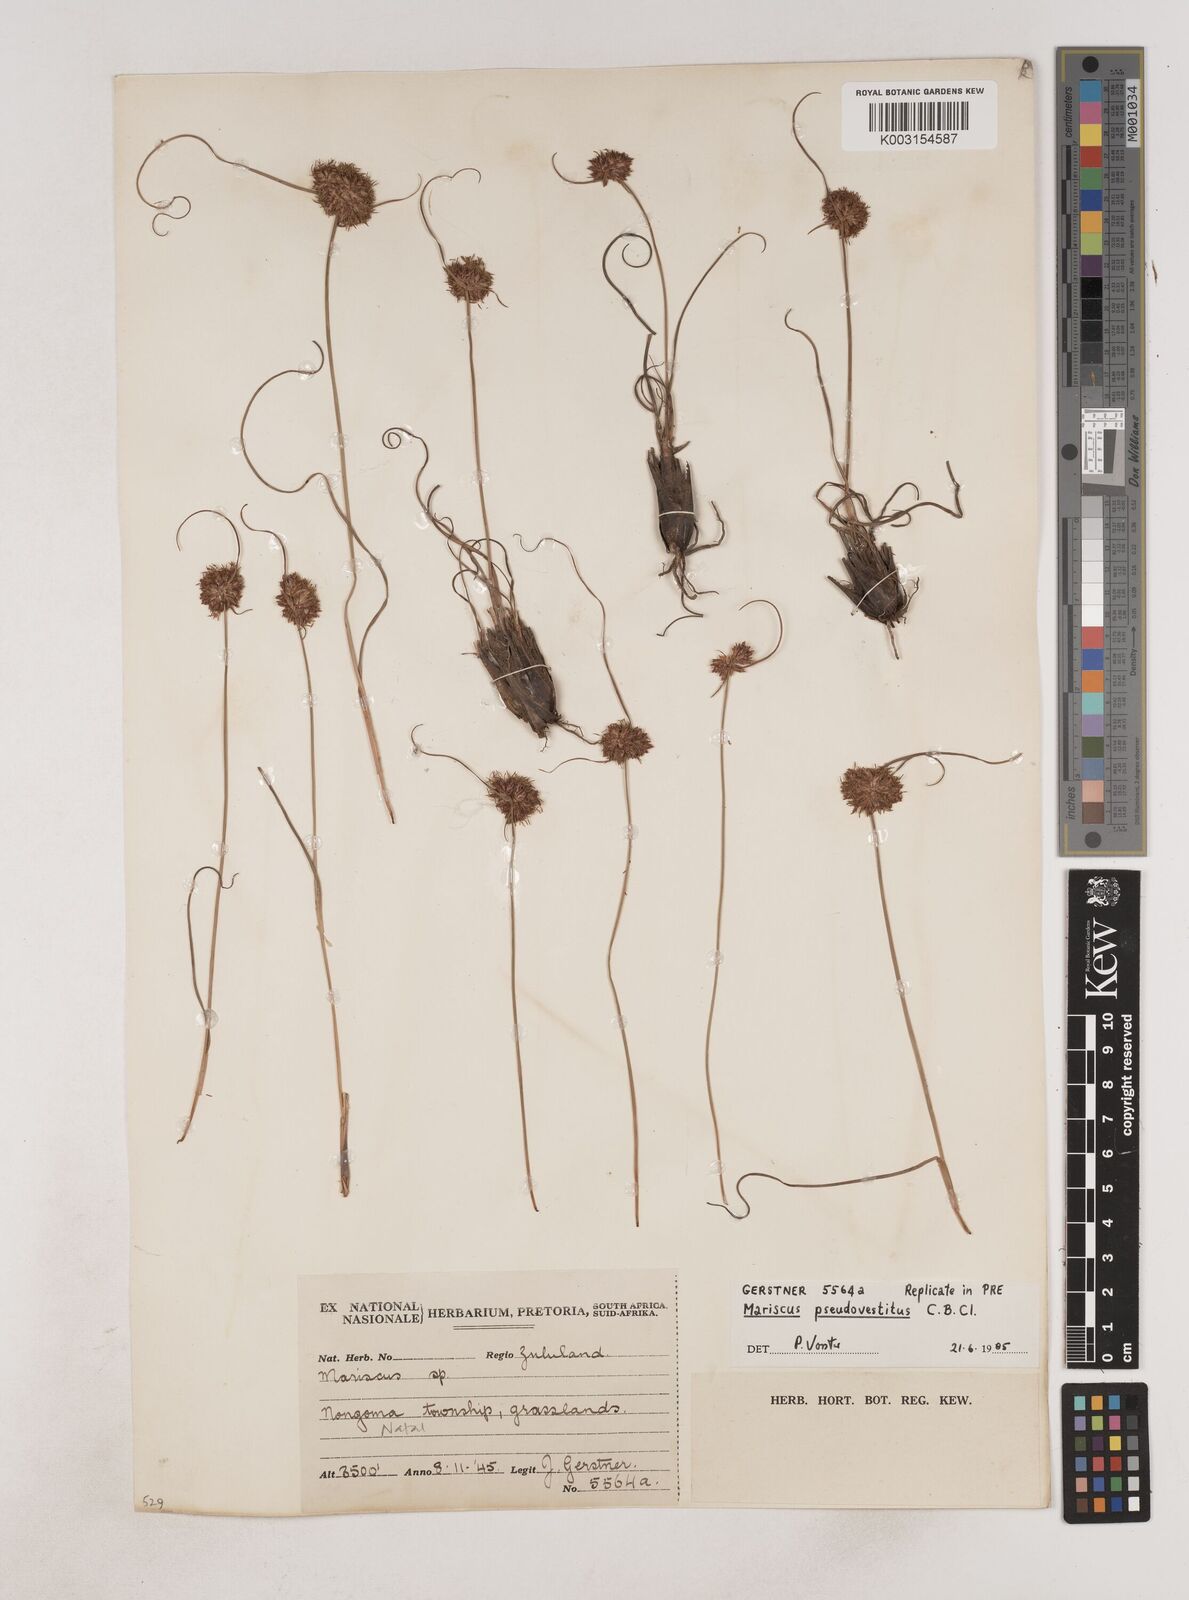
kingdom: Plantae
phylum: Tracheophyta
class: Liliopsida
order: Poales
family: Cyperaceae
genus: Cyperus
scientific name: Cyperus pseudovestitus
